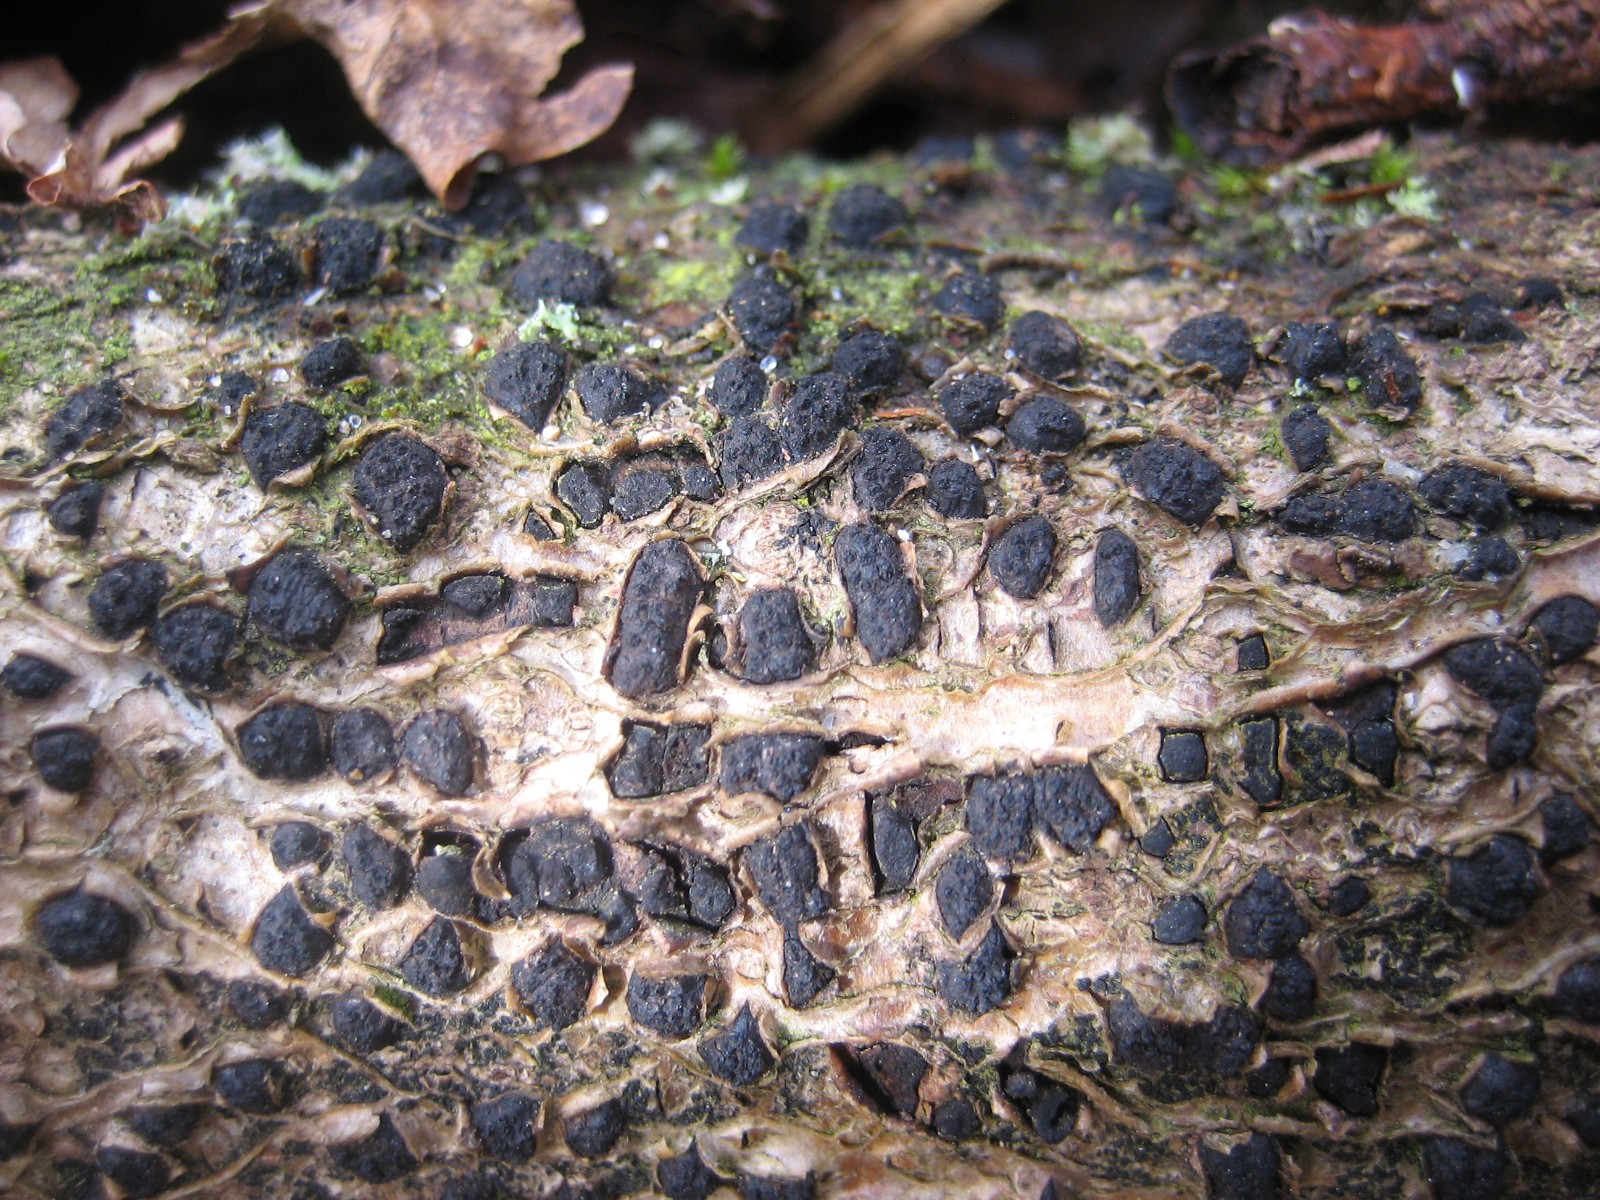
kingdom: Fungi
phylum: Ascomycota
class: Sordariomycetes
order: Xylariales
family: Diatrypaceae
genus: Diatrypella
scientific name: Diatrypella quercina
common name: ege-kulskorpe
